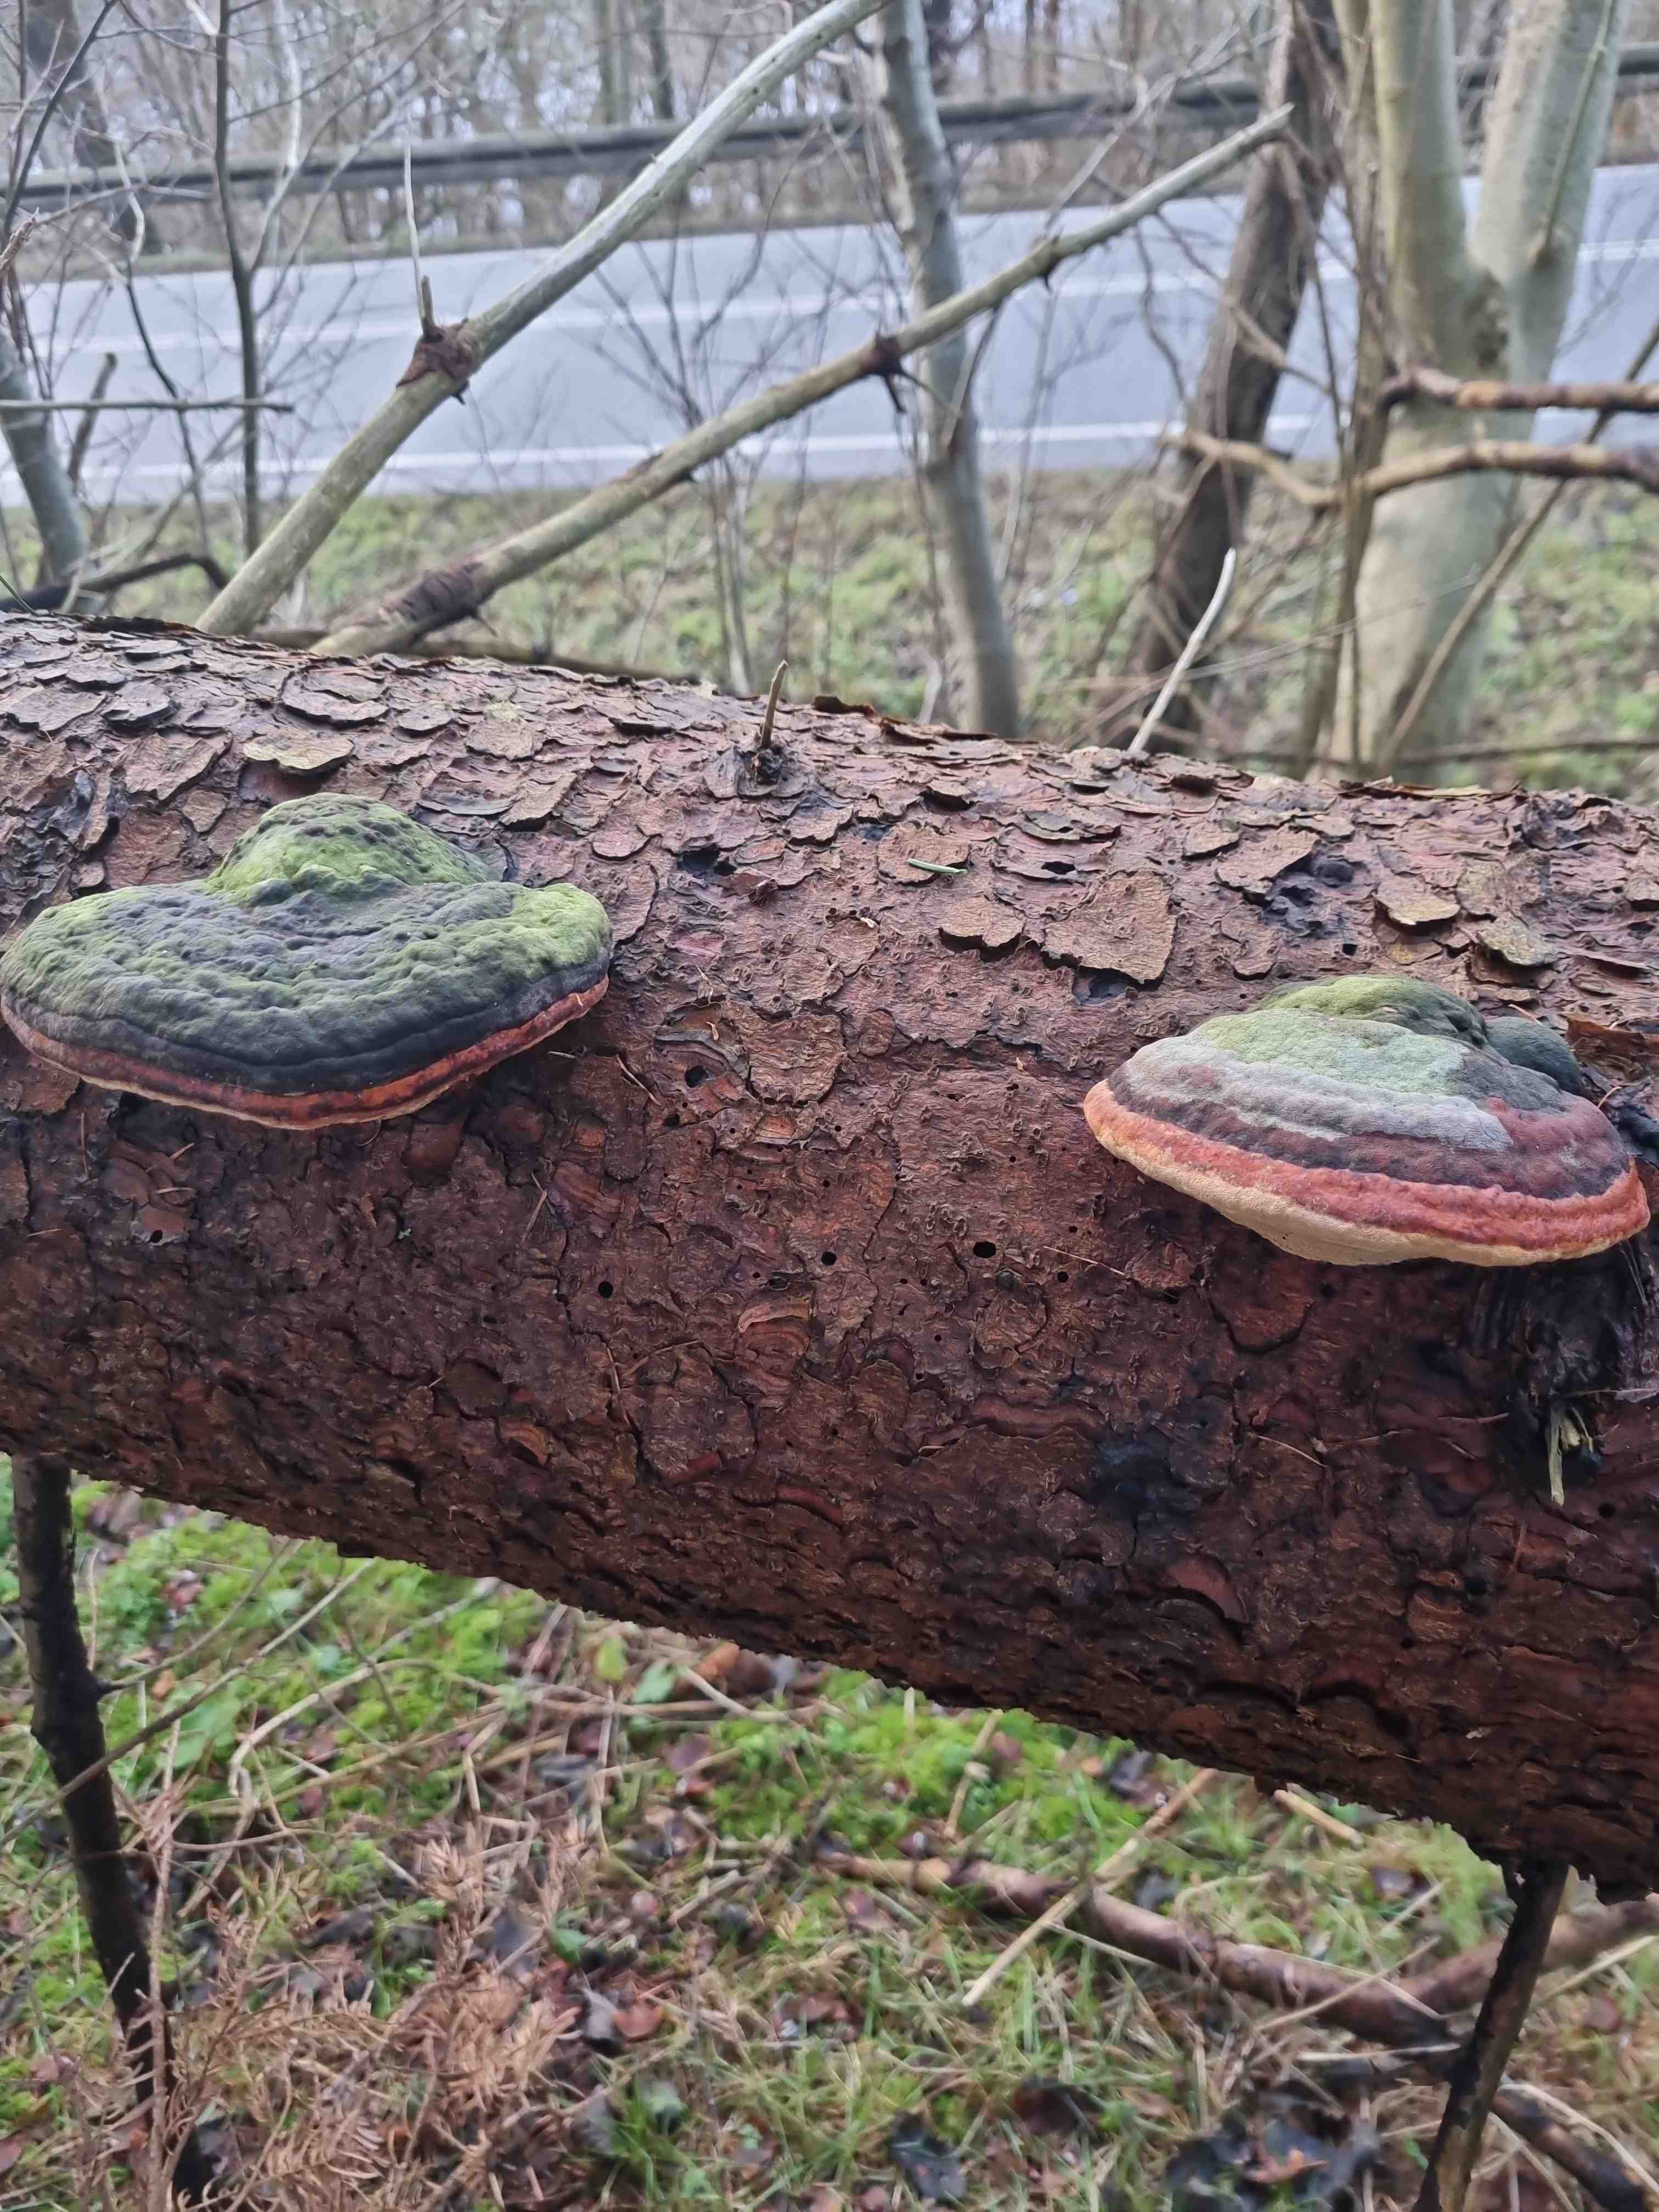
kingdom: Fungi
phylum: Basidiomycota
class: Agaricomycetes
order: Polyporales
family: Fomitopsidaceae
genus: Fomitopsis
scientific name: Fomitopsis pinicola
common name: randbæltet hovporesvamp
